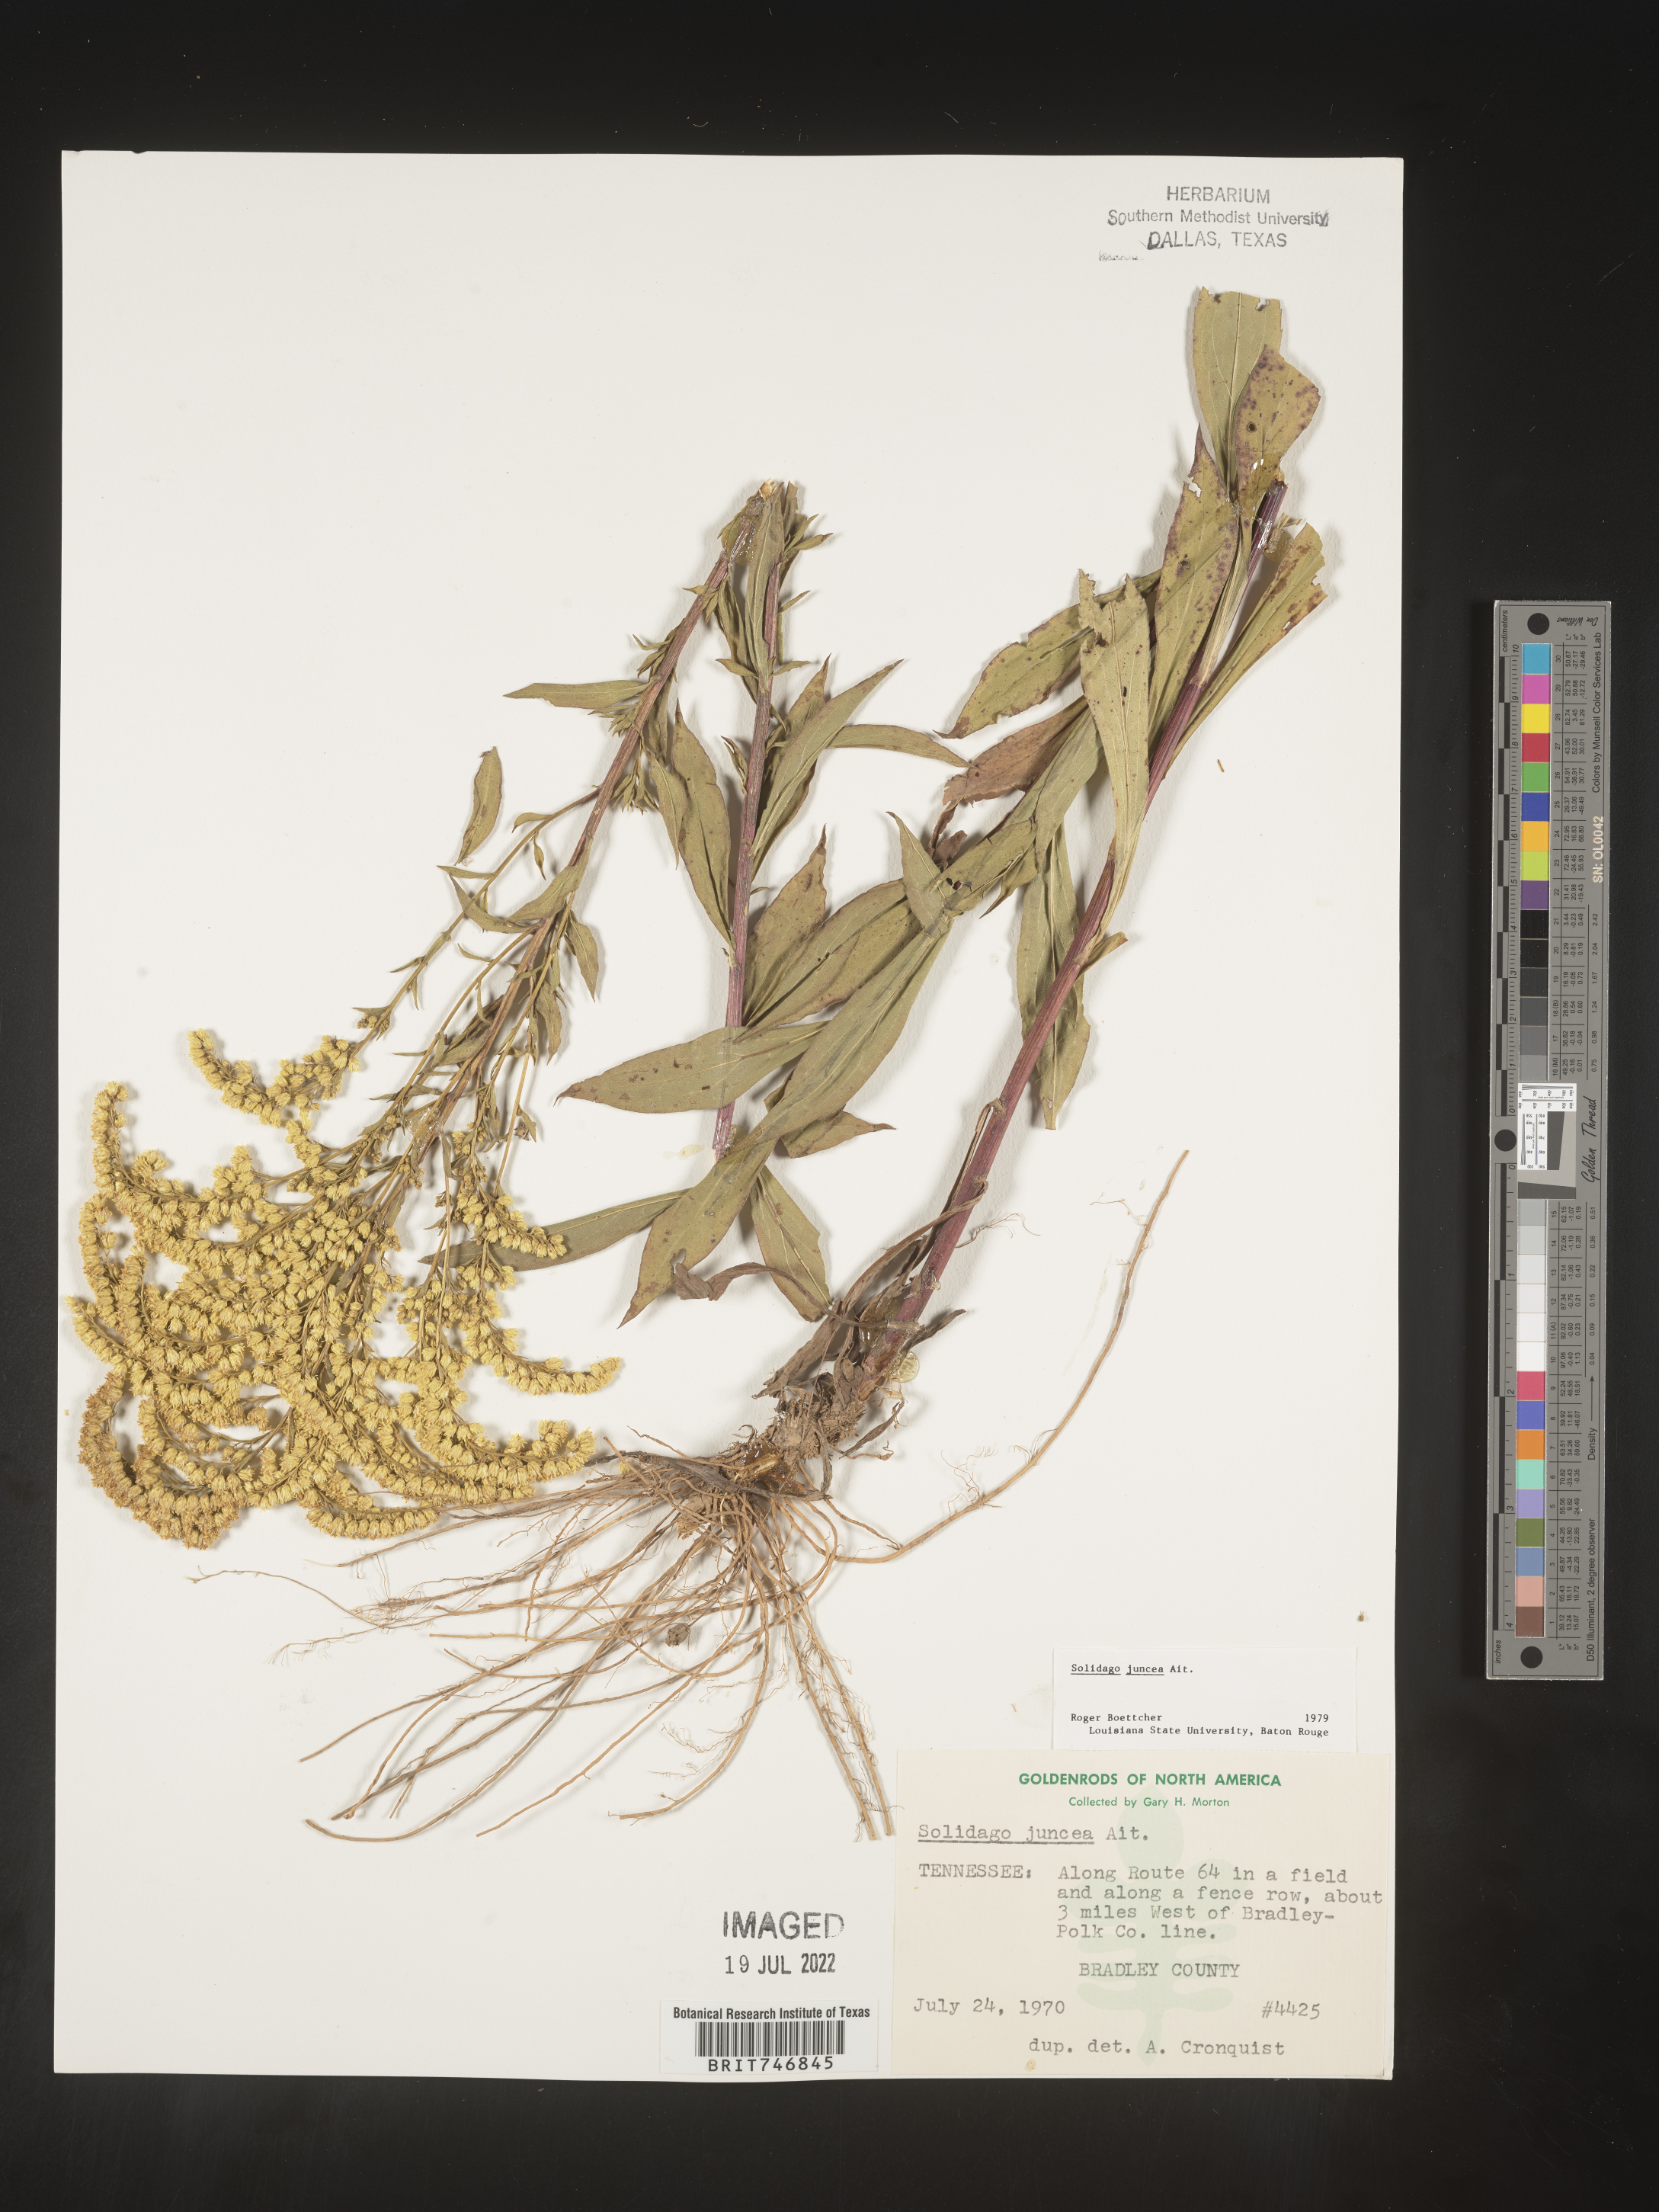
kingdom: Plantae
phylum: Tracheophyta
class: Magnoliopsida
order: Asterales
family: Asteraceae
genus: Solidago
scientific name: Solidago juncea
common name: Early goldenrod
